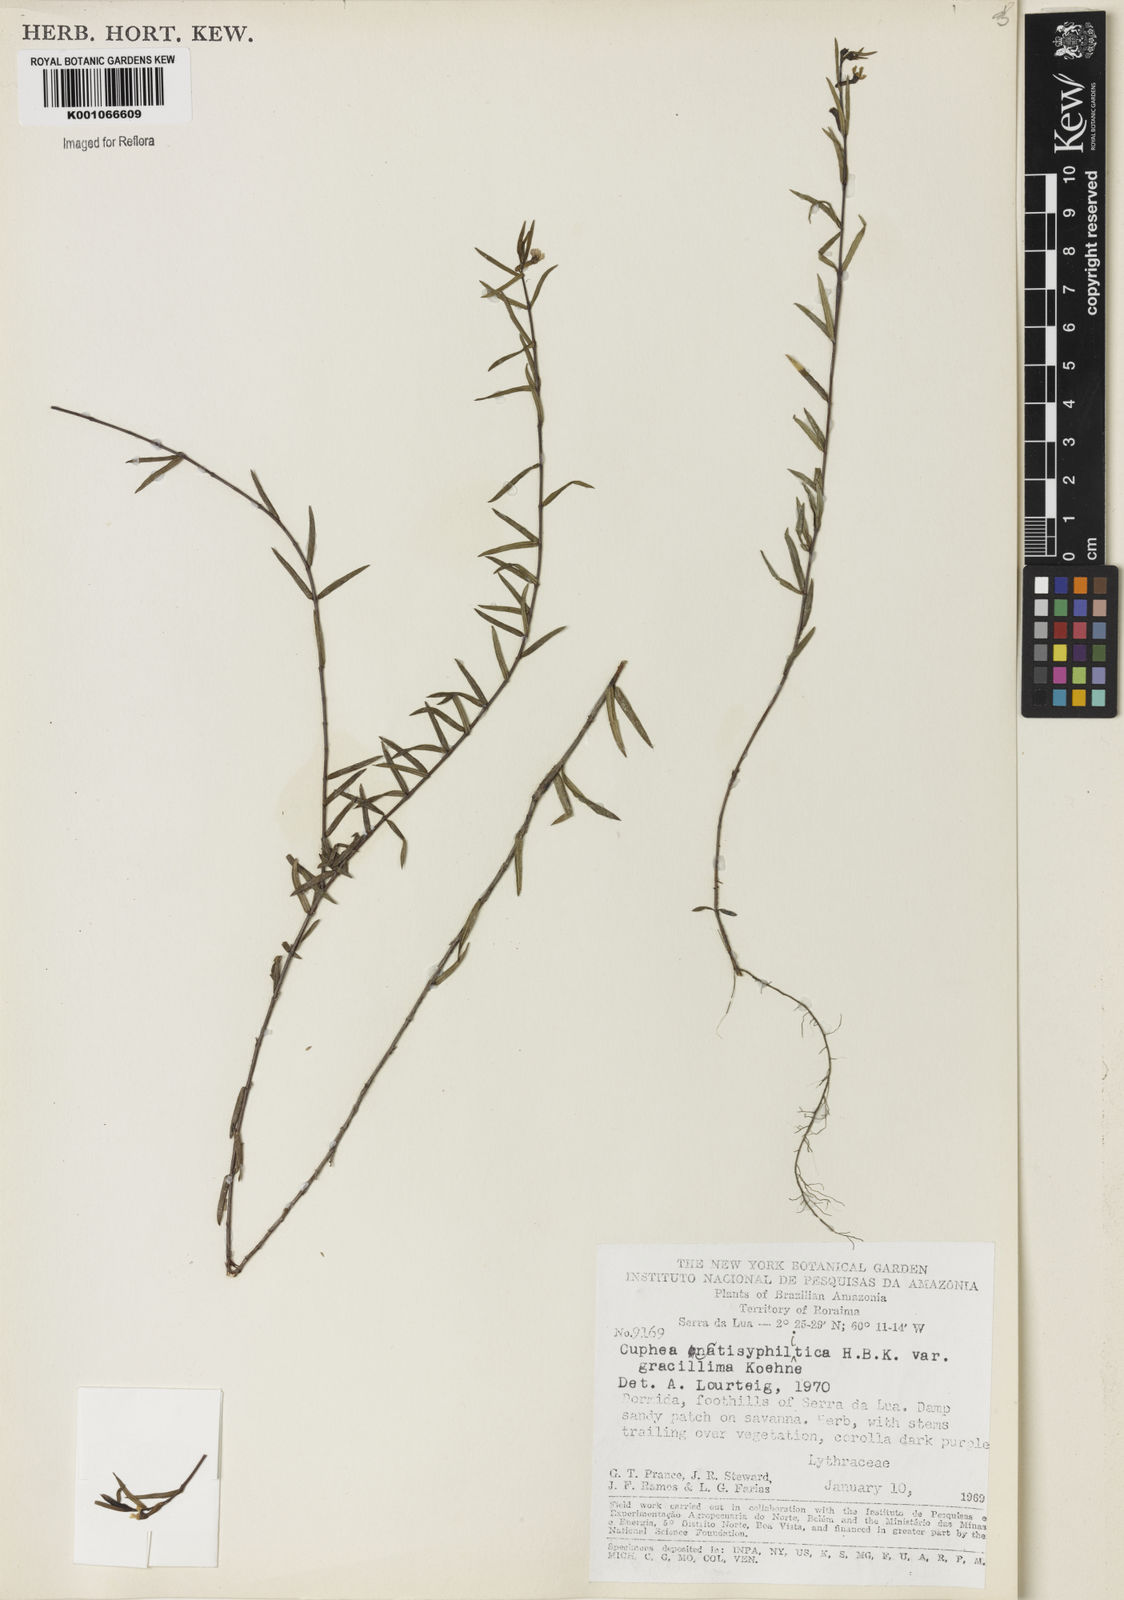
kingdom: Plantae
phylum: Tracheophyta
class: Magnoliopsida
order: Myrtales
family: Lythraceae
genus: Cuphea
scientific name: Cuphea antisyphilitica
